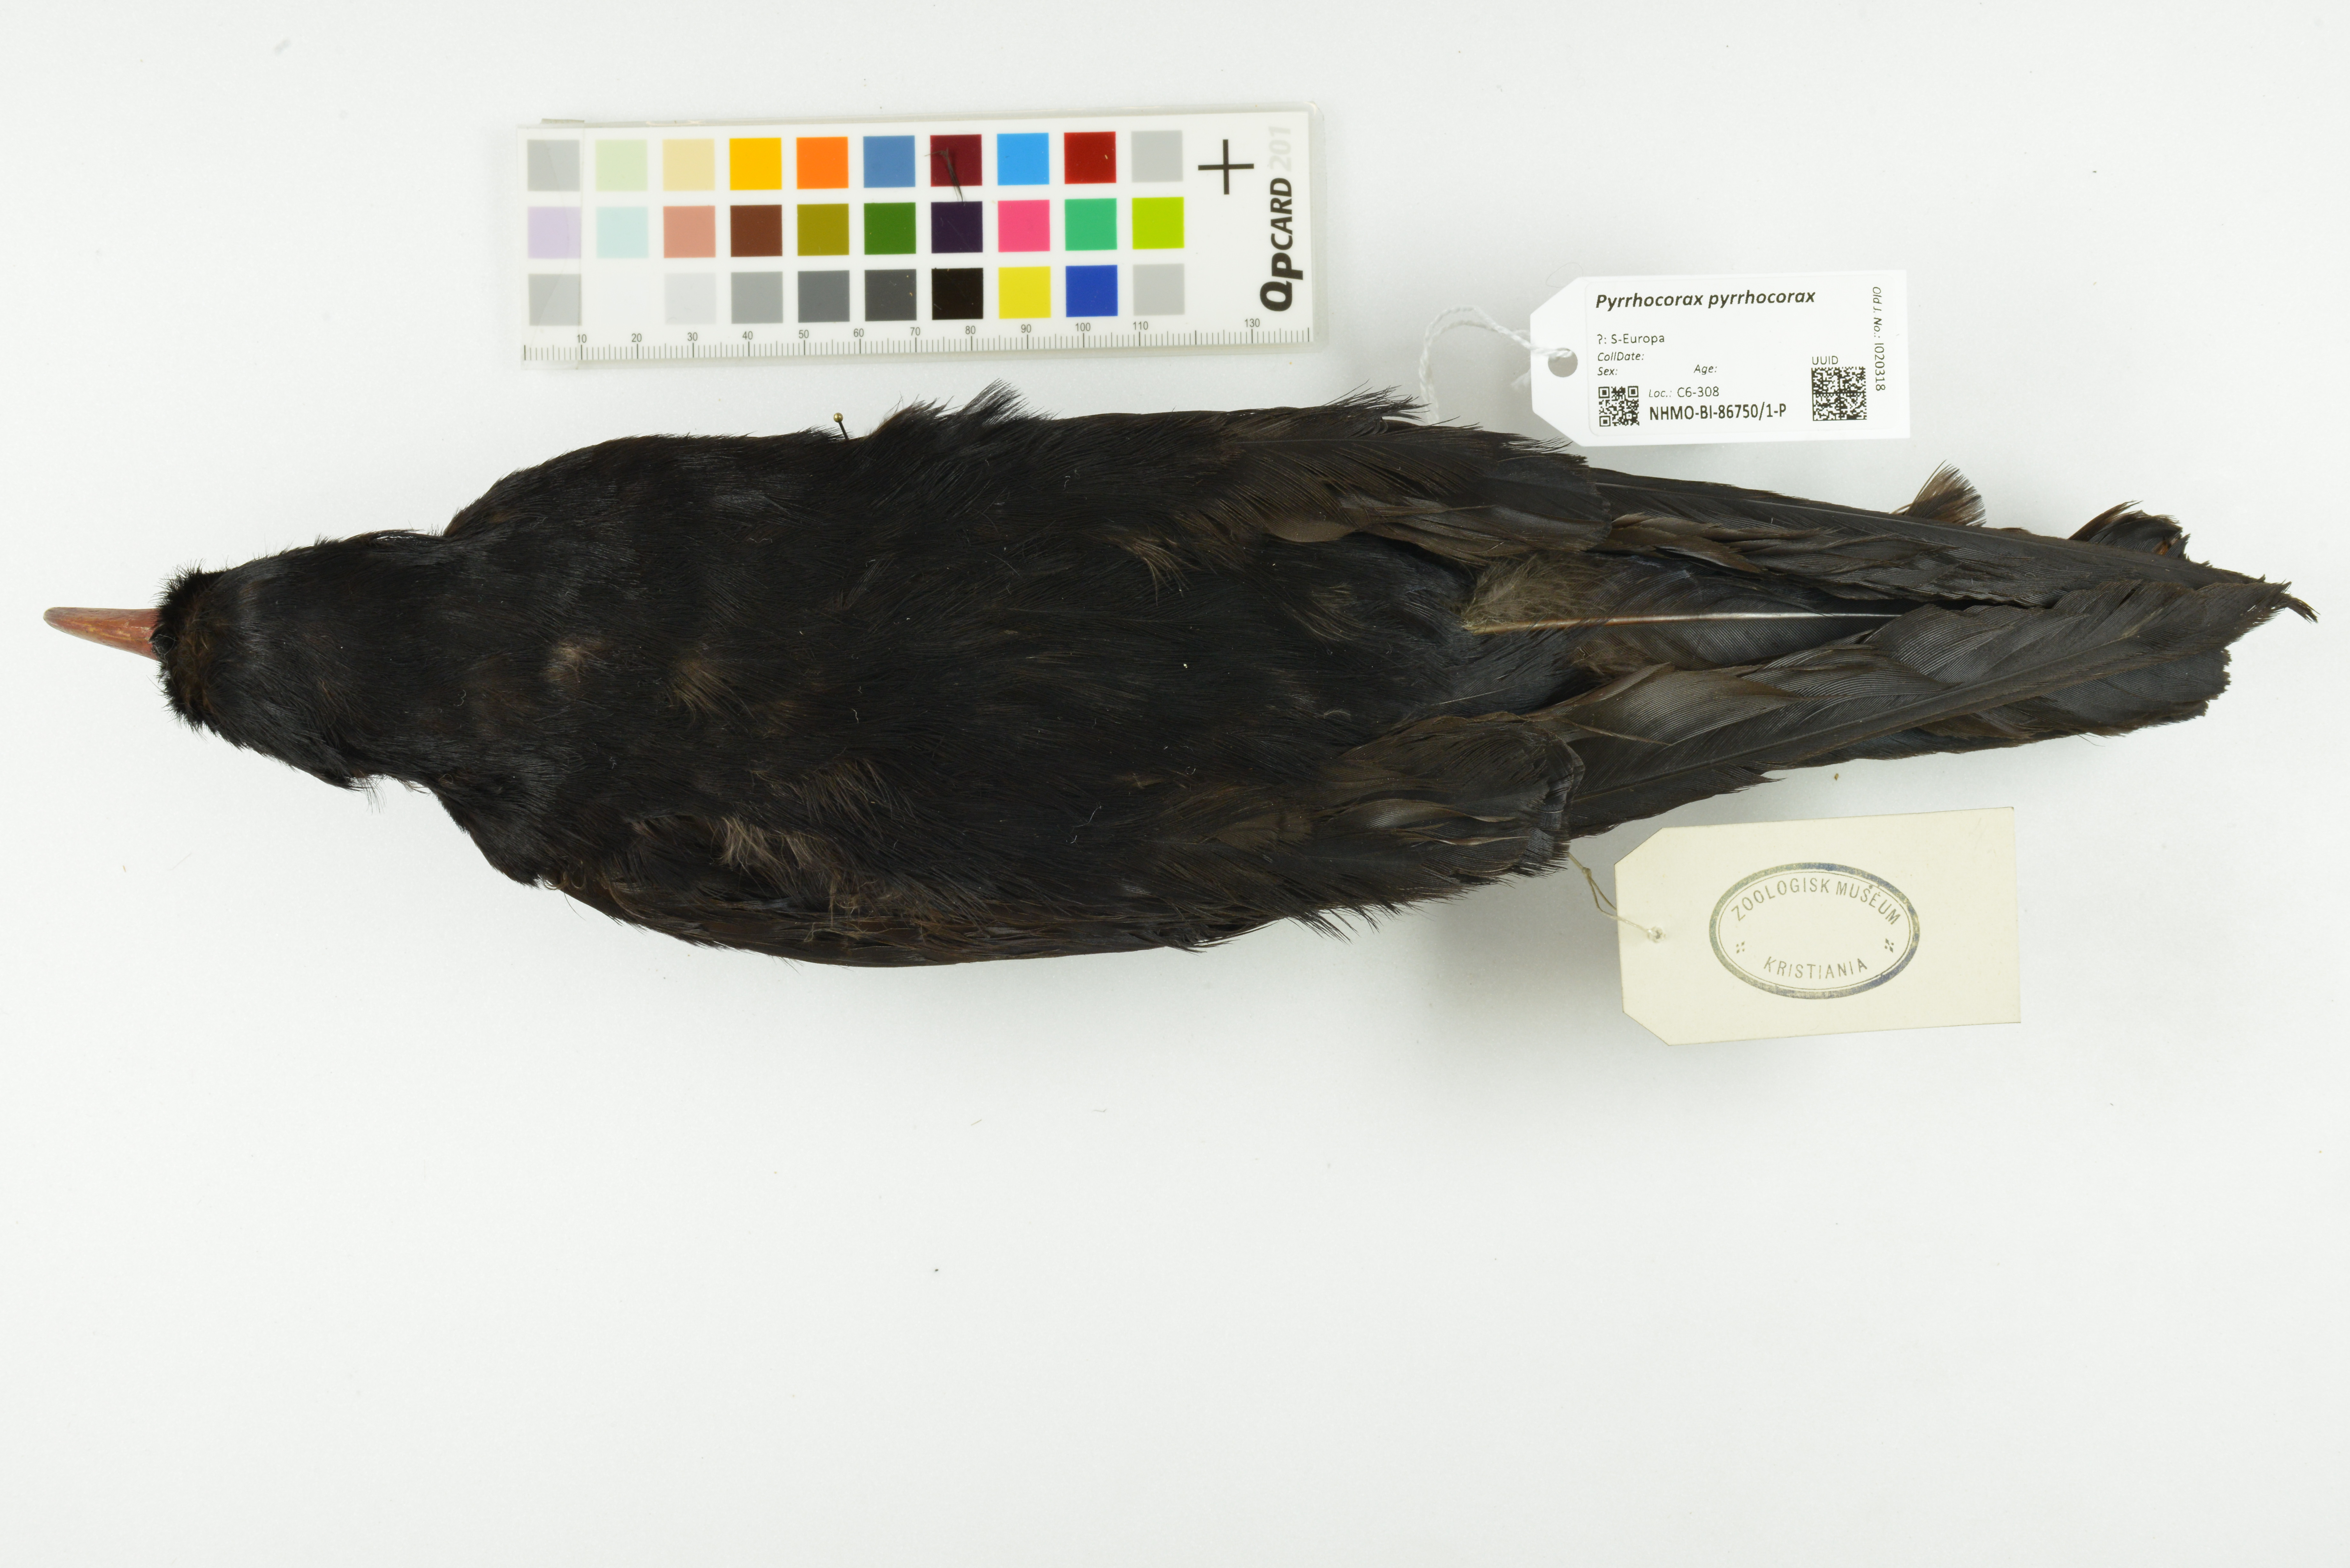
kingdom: Animalia
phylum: Chordata
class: Aves
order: Passeriformes
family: Corvidae
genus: Pyrrhocorax
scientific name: Pyrrhocorax pyrrhocorax
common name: Red-billed chough
